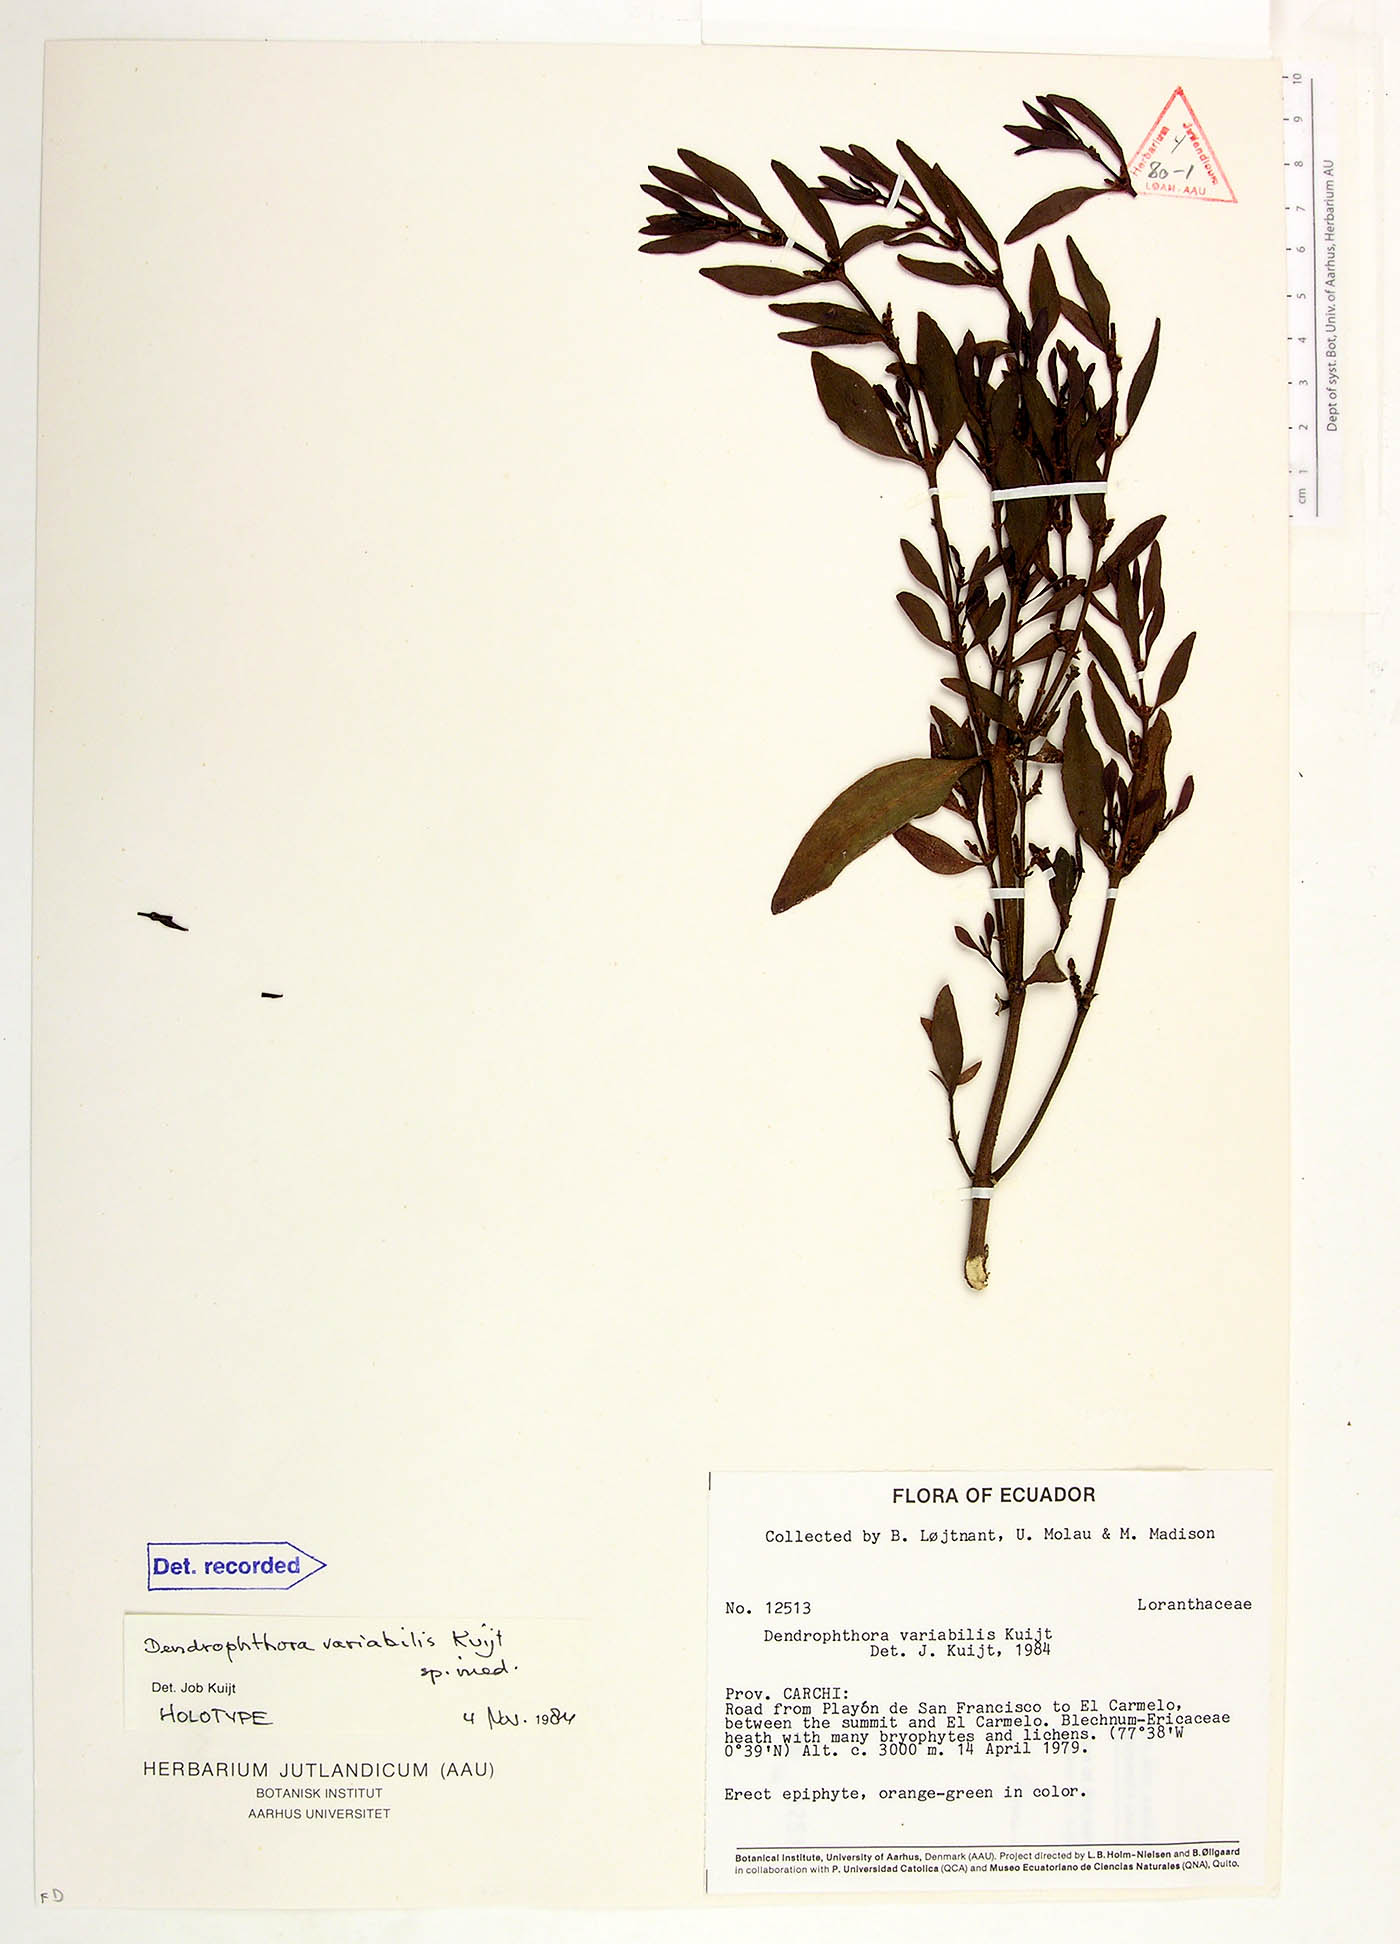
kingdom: Plantae
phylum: Tracheophyta
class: Magnoliopsida
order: Santalales
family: Viscaceae
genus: Dendrophthora
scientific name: Dendrophthora variabilis
